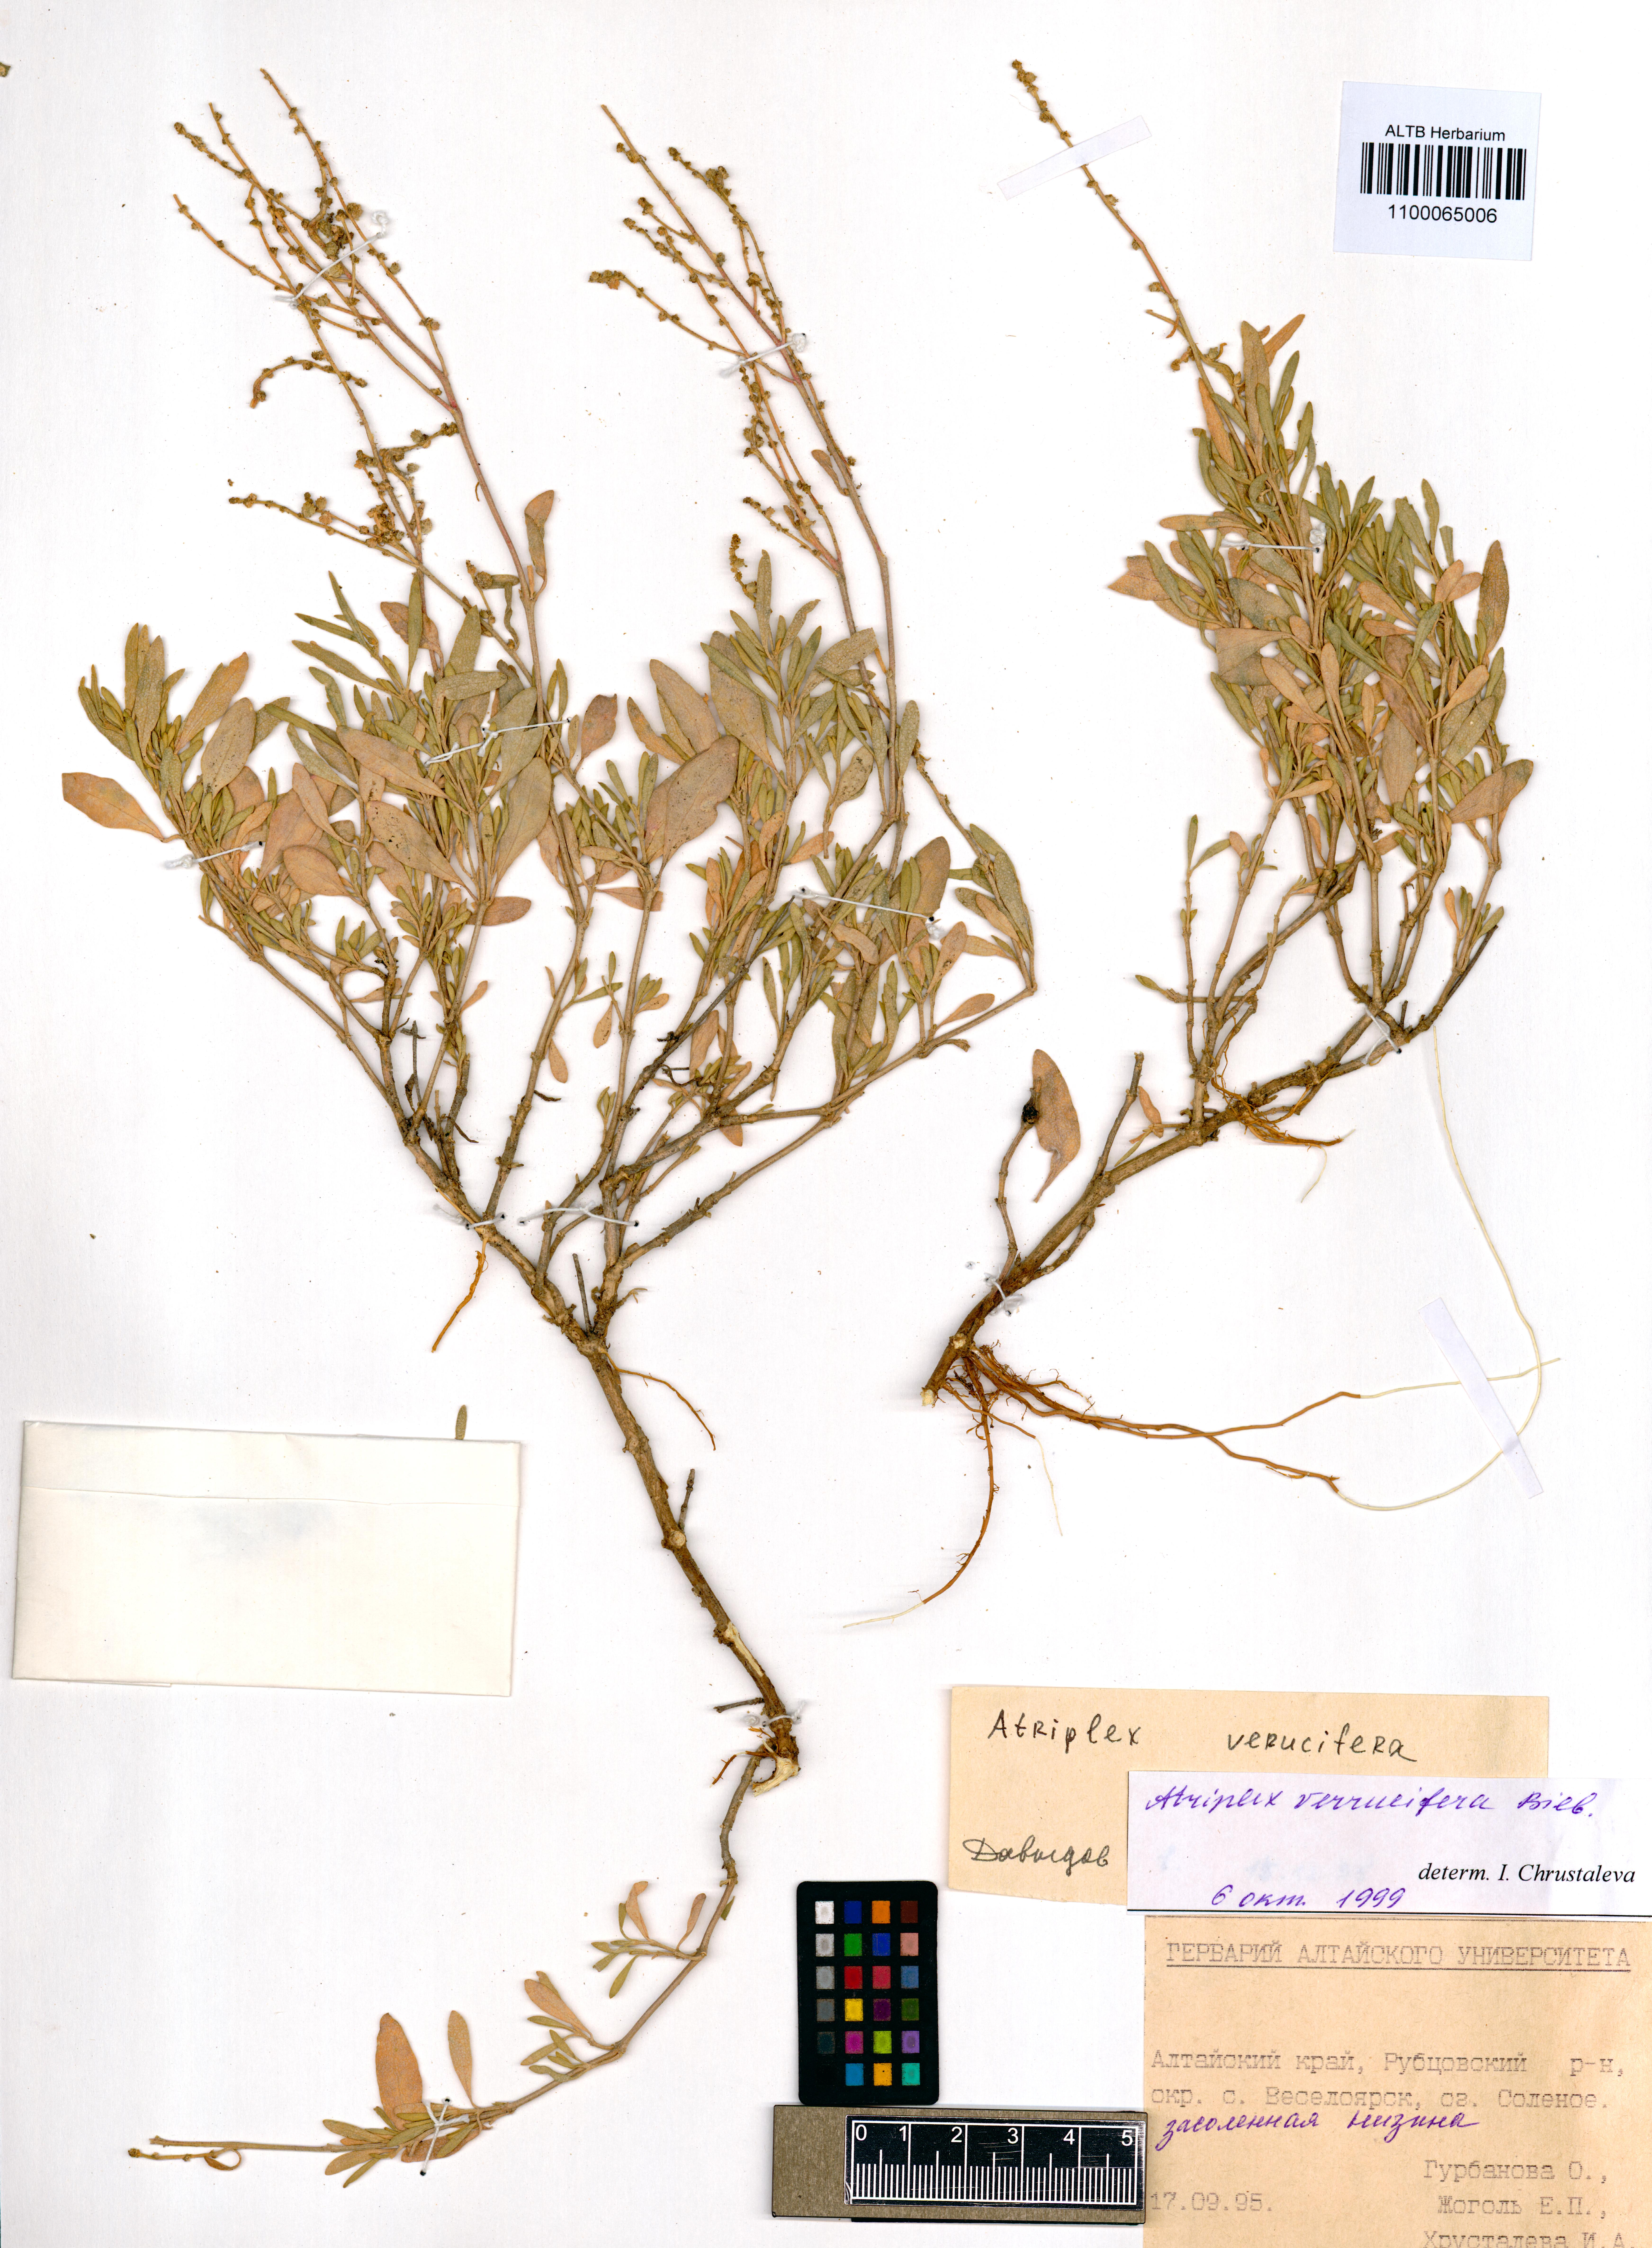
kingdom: Plantae
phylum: Tracheophyta
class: Magnoliopsida
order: Caryophyllales
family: Amaranthaceae
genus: Halimione
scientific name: Halimione verrucifera
